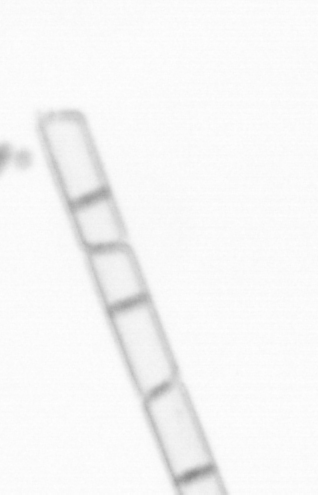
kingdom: Chromista
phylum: Ochrophyta
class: Bacillariophyceae
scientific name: Bacillariophyceae
